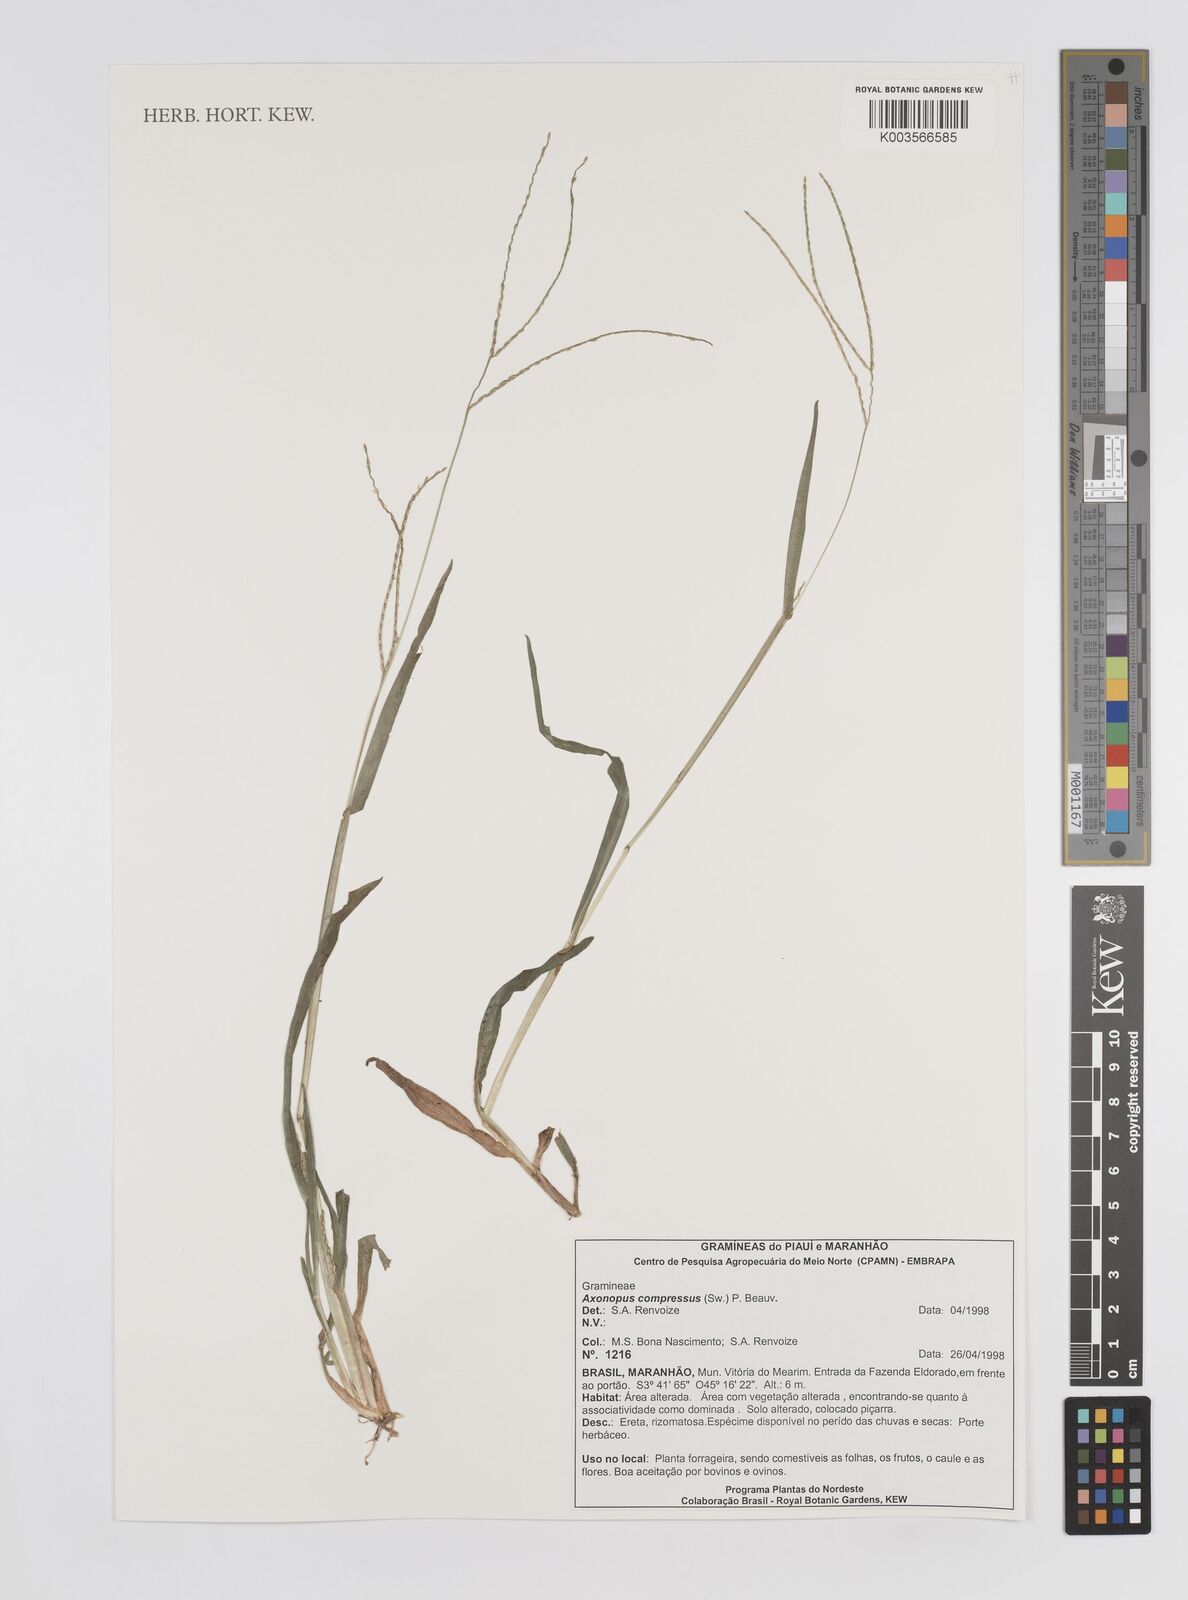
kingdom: Plantae
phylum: Tracheophyta
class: Liliopsida
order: Poales
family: Poaceae
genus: Axonopus
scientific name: Axonopus compressus
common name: American carpet grass
